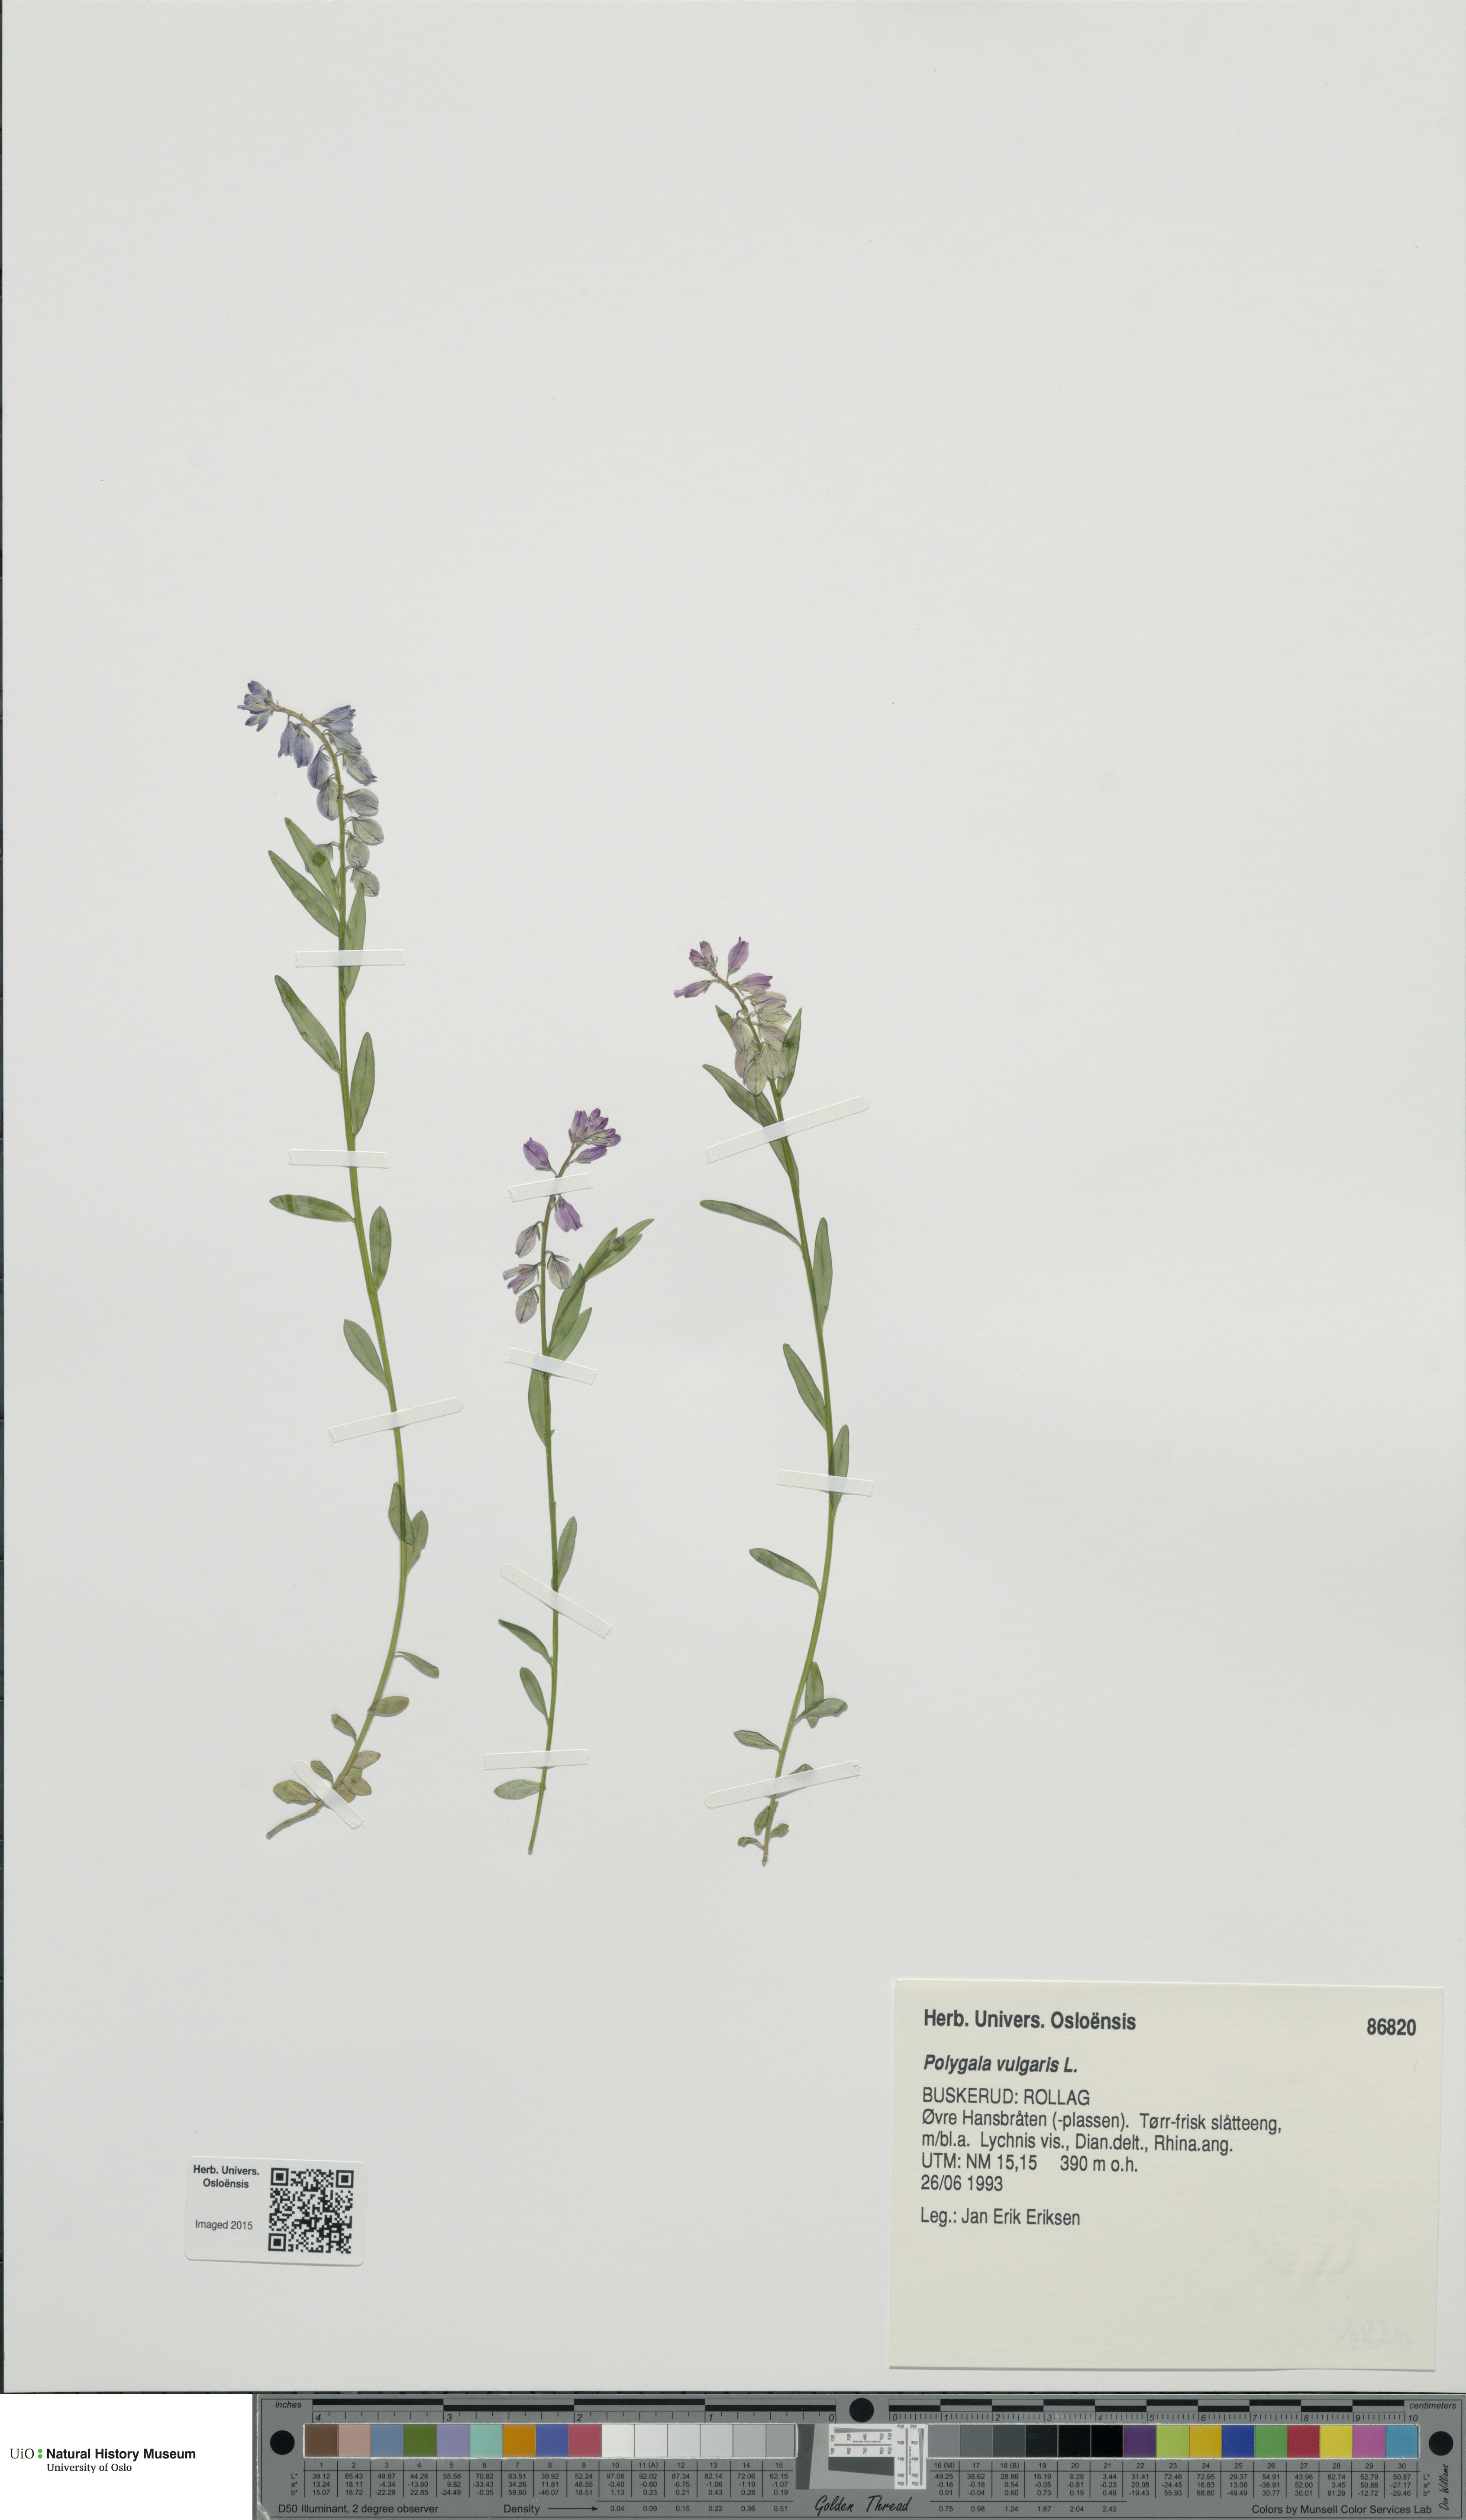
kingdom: Plantae
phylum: Tracheophyta
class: Magnoliopsida
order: Fabales
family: Polygalaceae
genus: Polygala
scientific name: Polygala vulgaris
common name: Common milkwort
